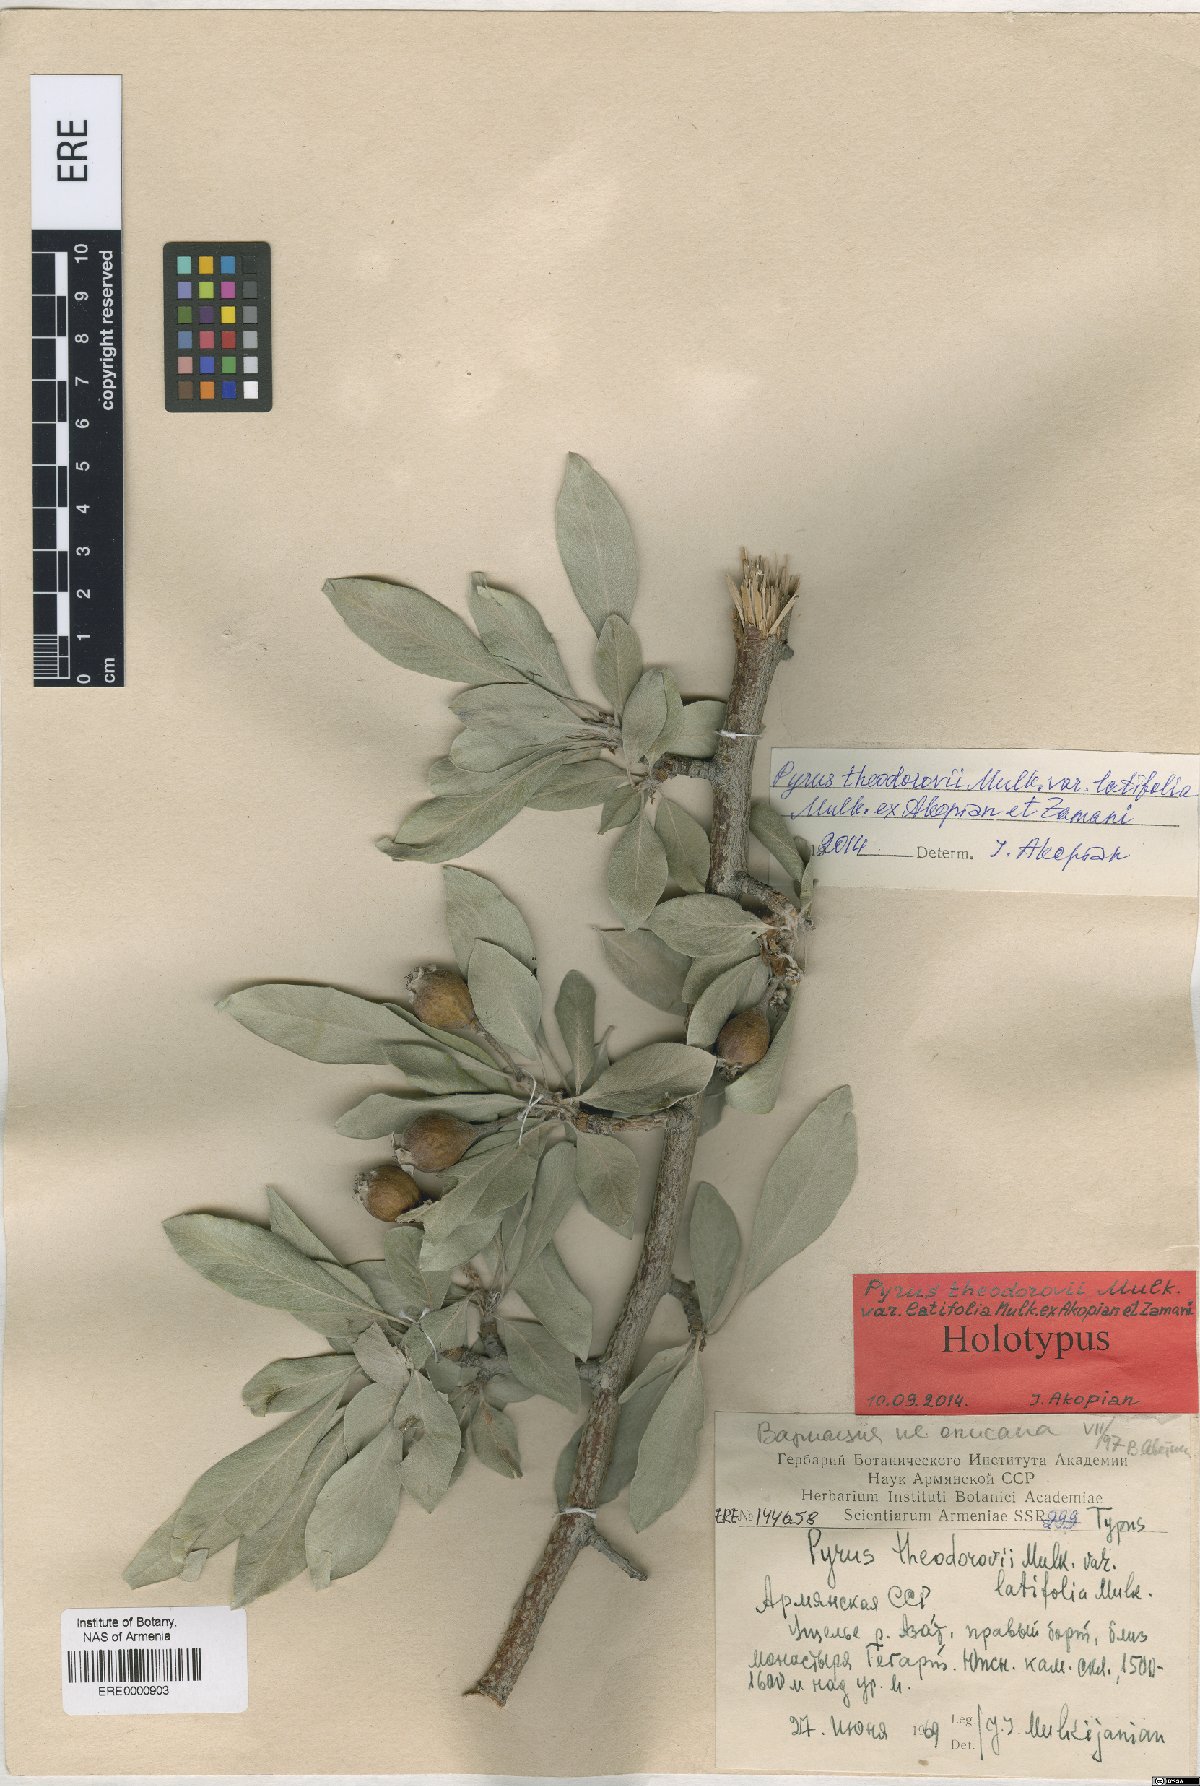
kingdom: Plantae
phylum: Tracheophyta
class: Magnoliopsida
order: Rosales
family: Rosaceae
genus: Pyrus
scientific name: Pyrus theodorovii
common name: Teodorov's pear
